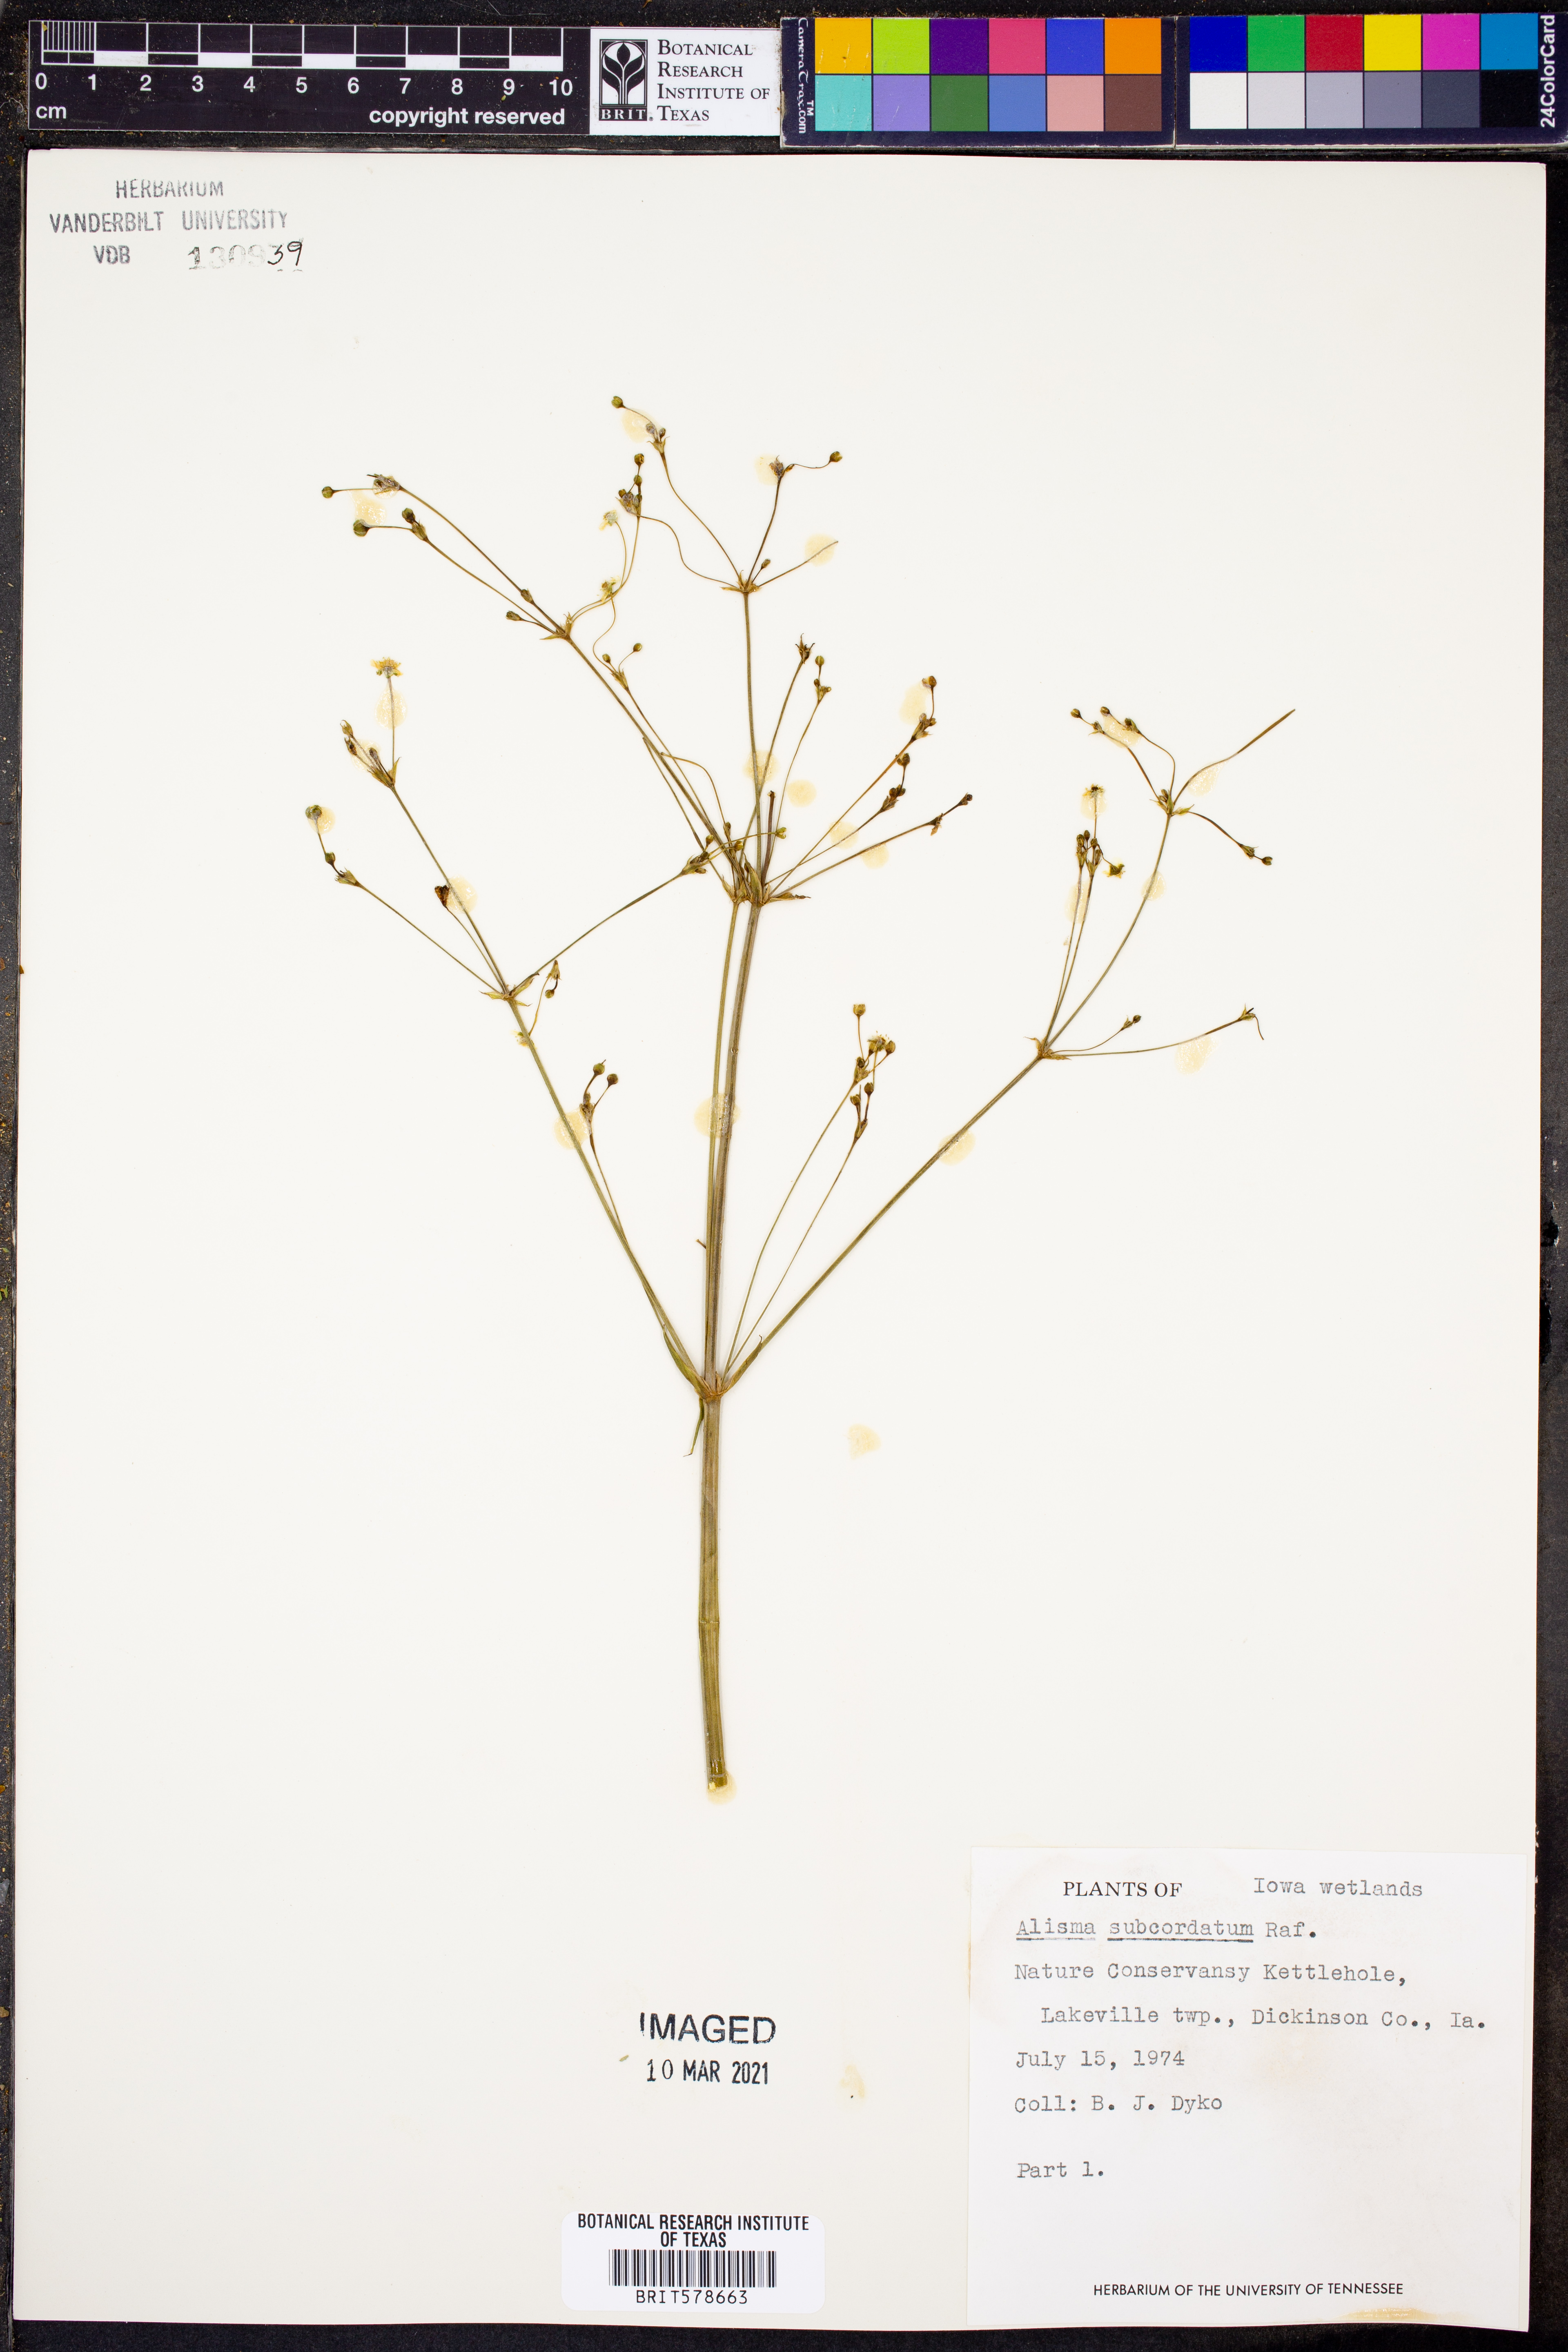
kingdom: Plantae
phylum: Tracheophyta
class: Liliopsida
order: Alismatales
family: Alismataceae
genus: Alisma
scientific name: Alisma subcordatum
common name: Southern water-plantain
